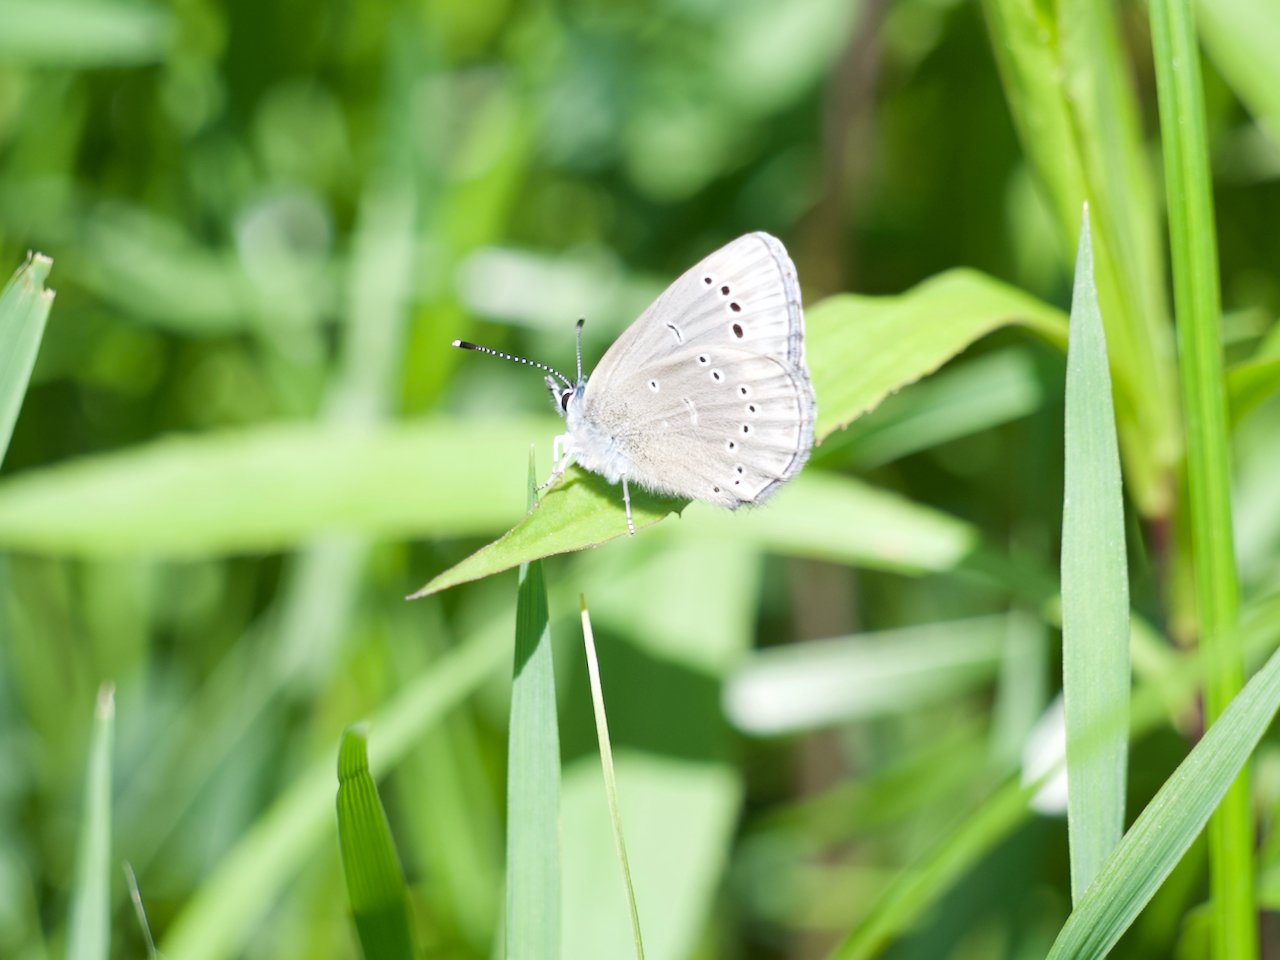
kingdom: Animalia
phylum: Arthropoda
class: Insecta
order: Lepidoptera
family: Lycaenidae
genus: Glaucopsyche
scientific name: Glaucopsyche lygdamus
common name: Silvery Blue
